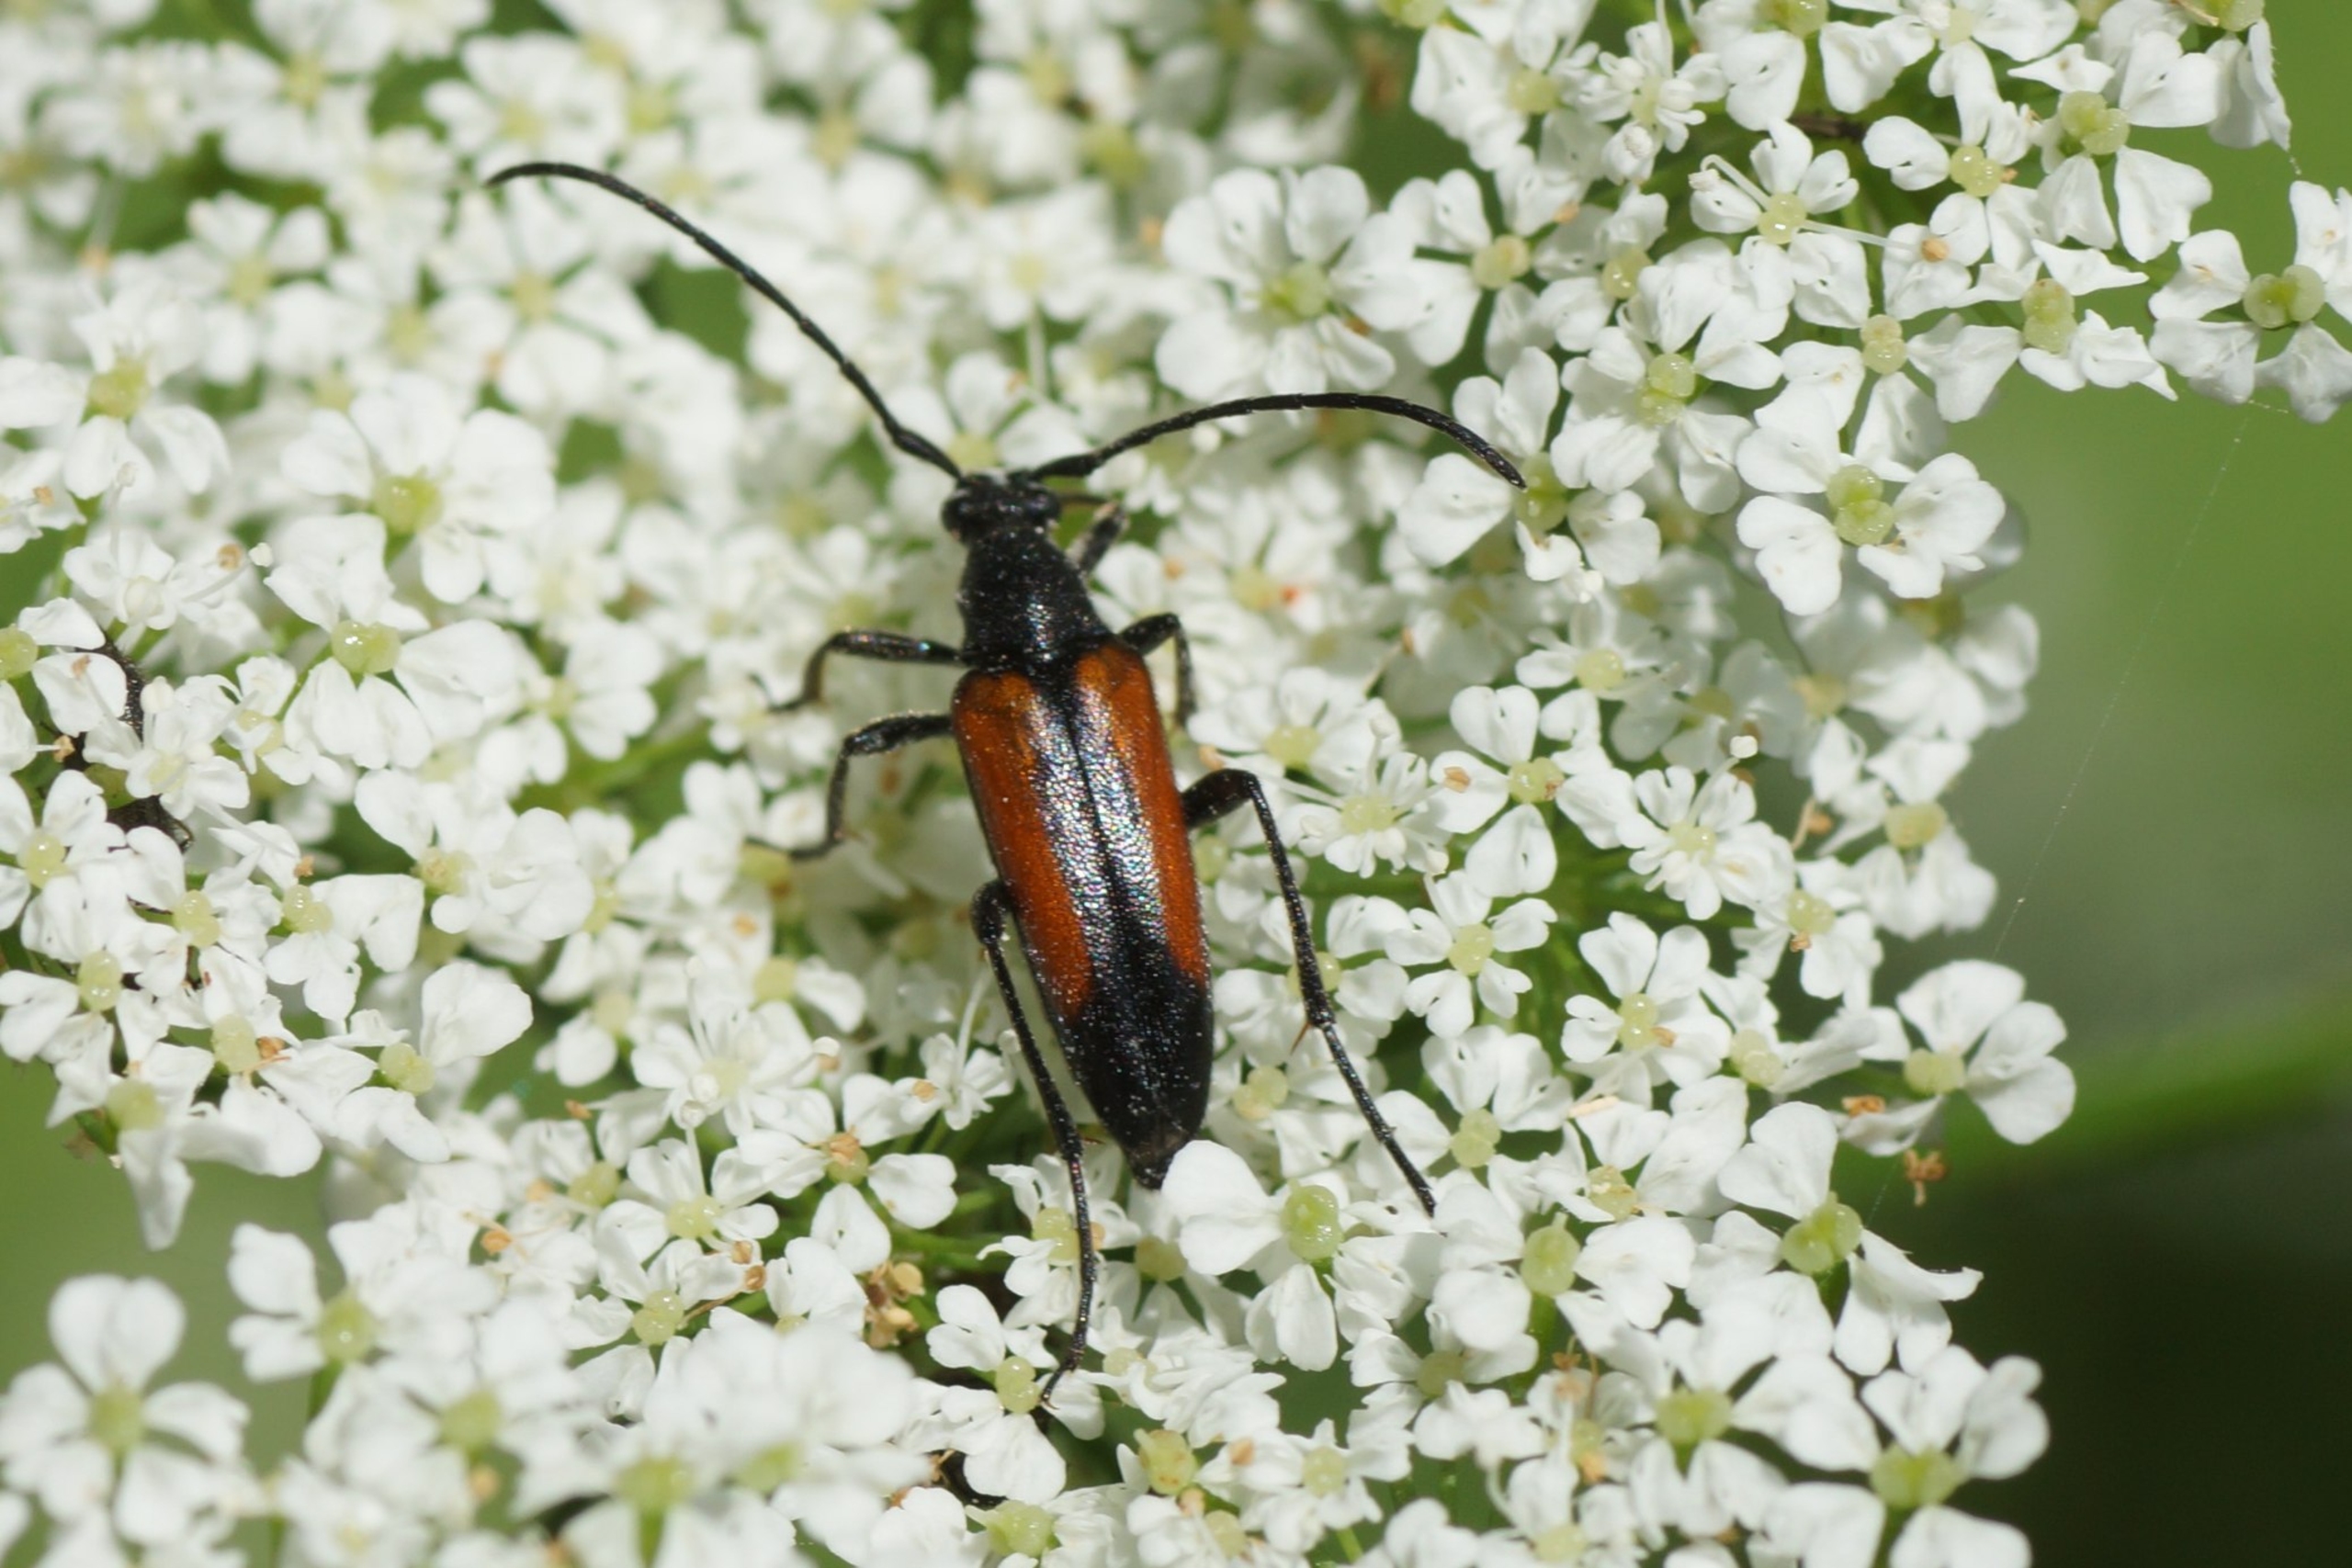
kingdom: Animalia
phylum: Arthropoda
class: Insecta
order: Coleoptera
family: Cerambycidae
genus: Stenurella
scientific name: Stenurella melanura
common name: Sortsømmet blomsterbuk
